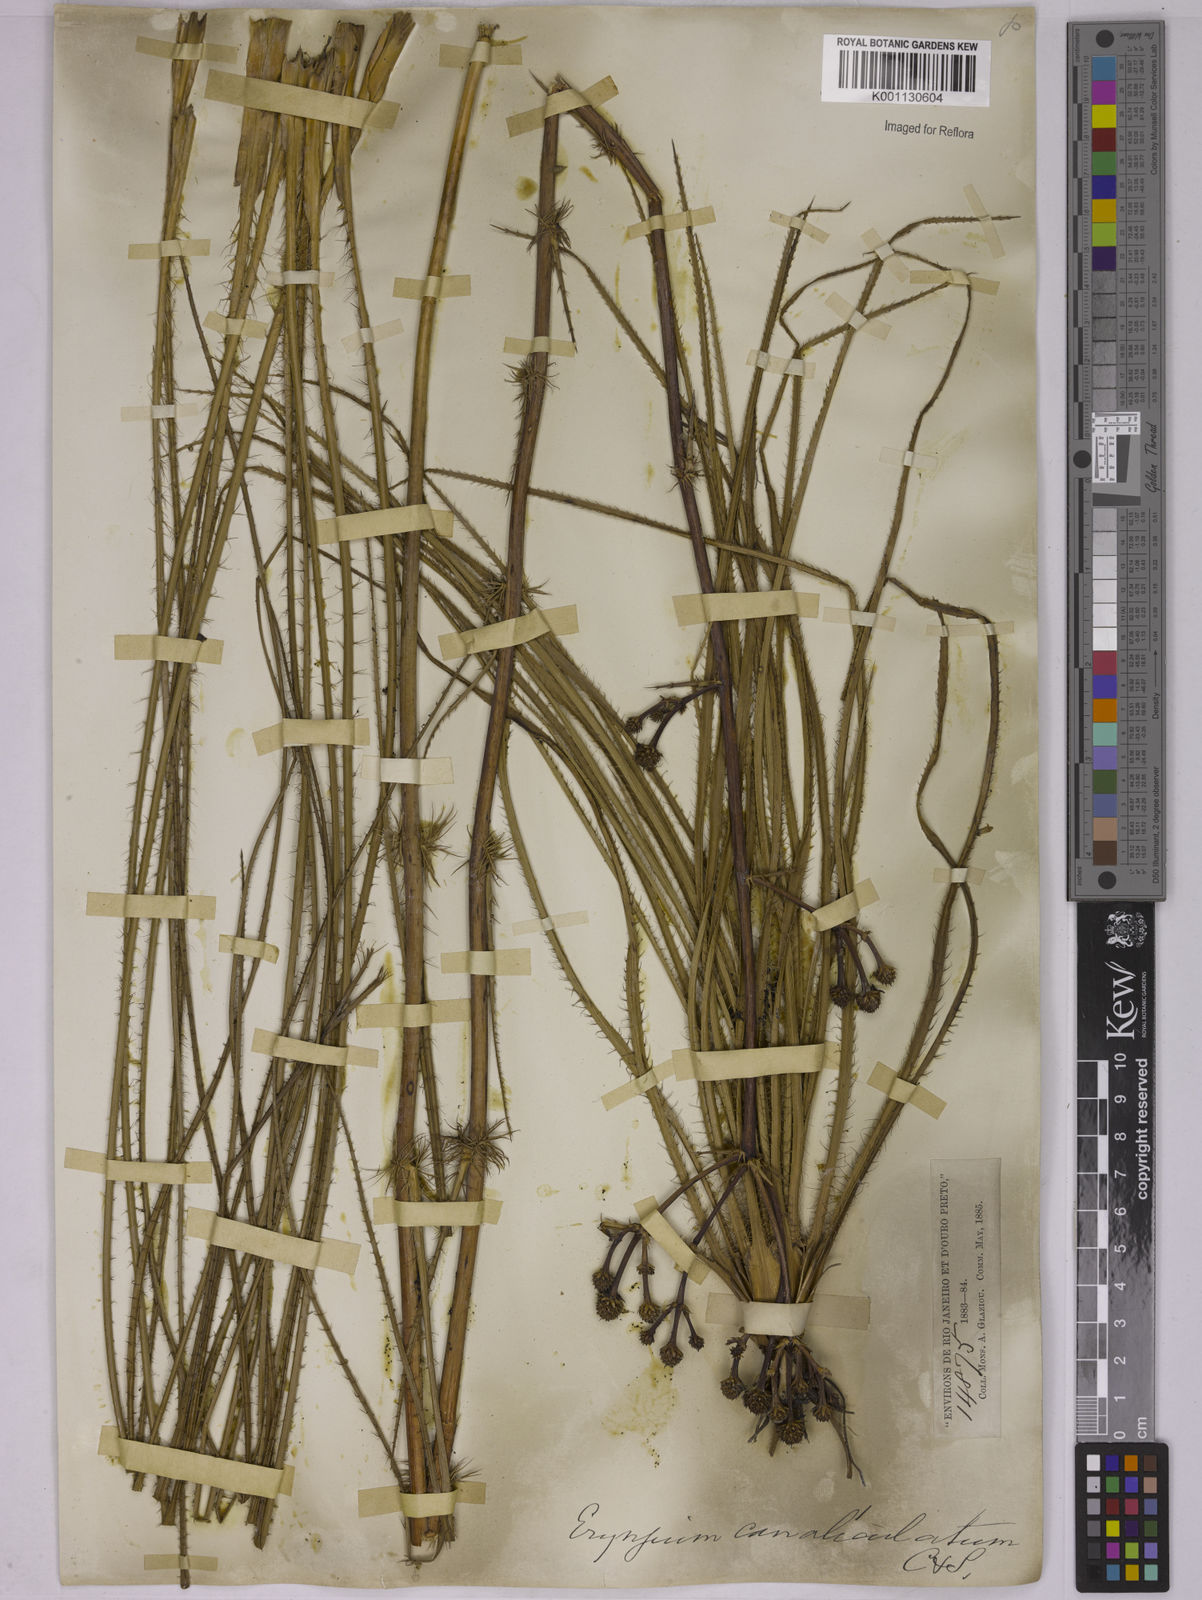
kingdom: Plantae
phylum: Tracheophyta
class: Magnoliopsida
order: Apiales
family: Apiaceae
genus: Eryngium
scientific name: Eryngium canaliculatum
